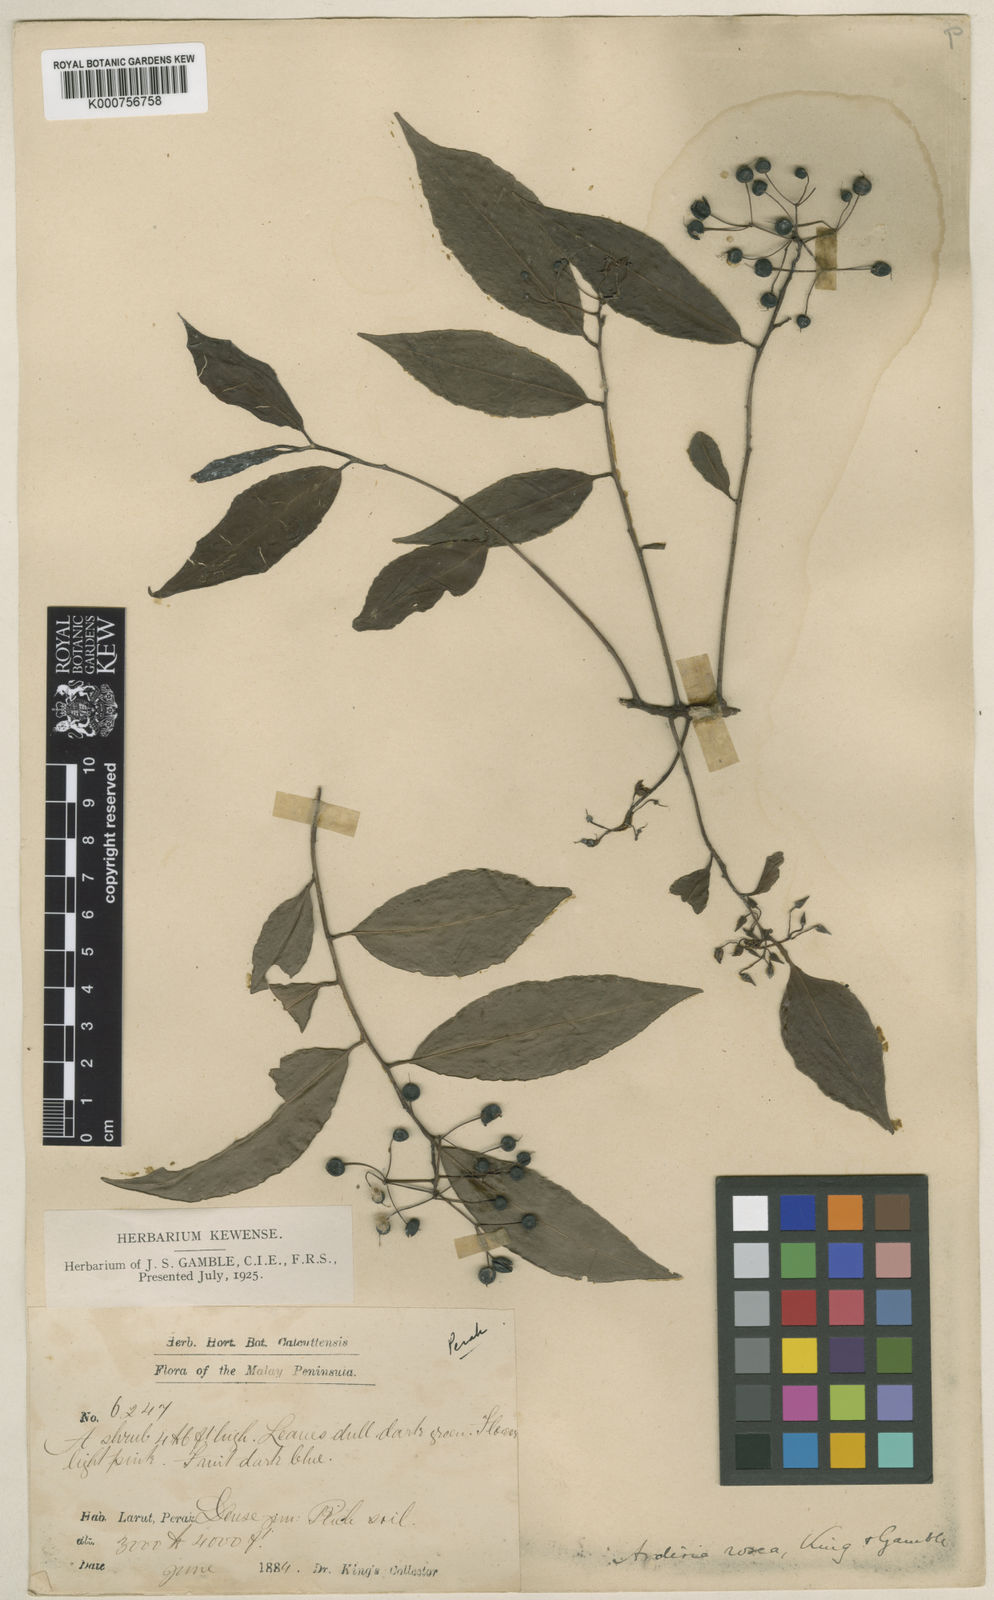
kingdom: Plantae
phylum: Tracheophyta
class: Magnoliopsida
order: Ericales
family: Primulaceae
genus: Ardisia
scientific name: Ardisia rosea
